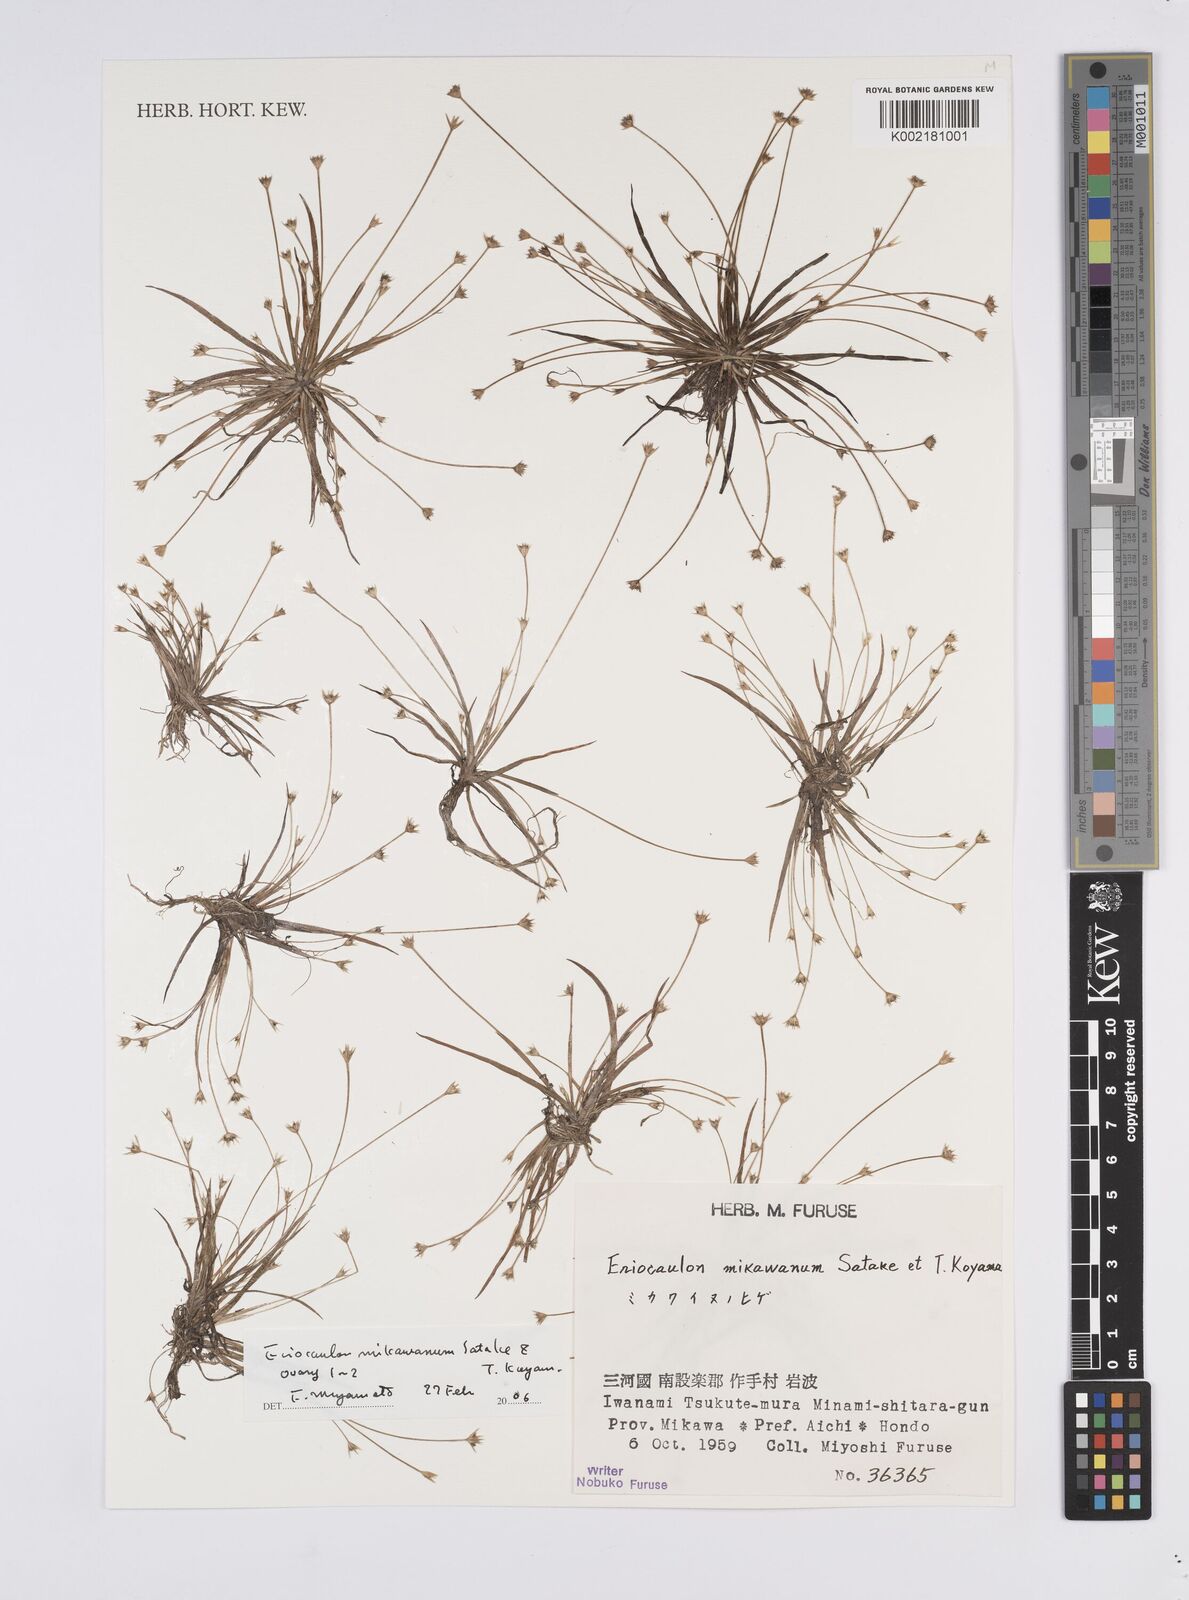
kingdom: Plantae
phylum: Tracheophyta
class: Liliopsida
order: Poales
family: Eriocaulaceae
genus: Eriocaulon
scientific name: Eriocaulon miquelianum
